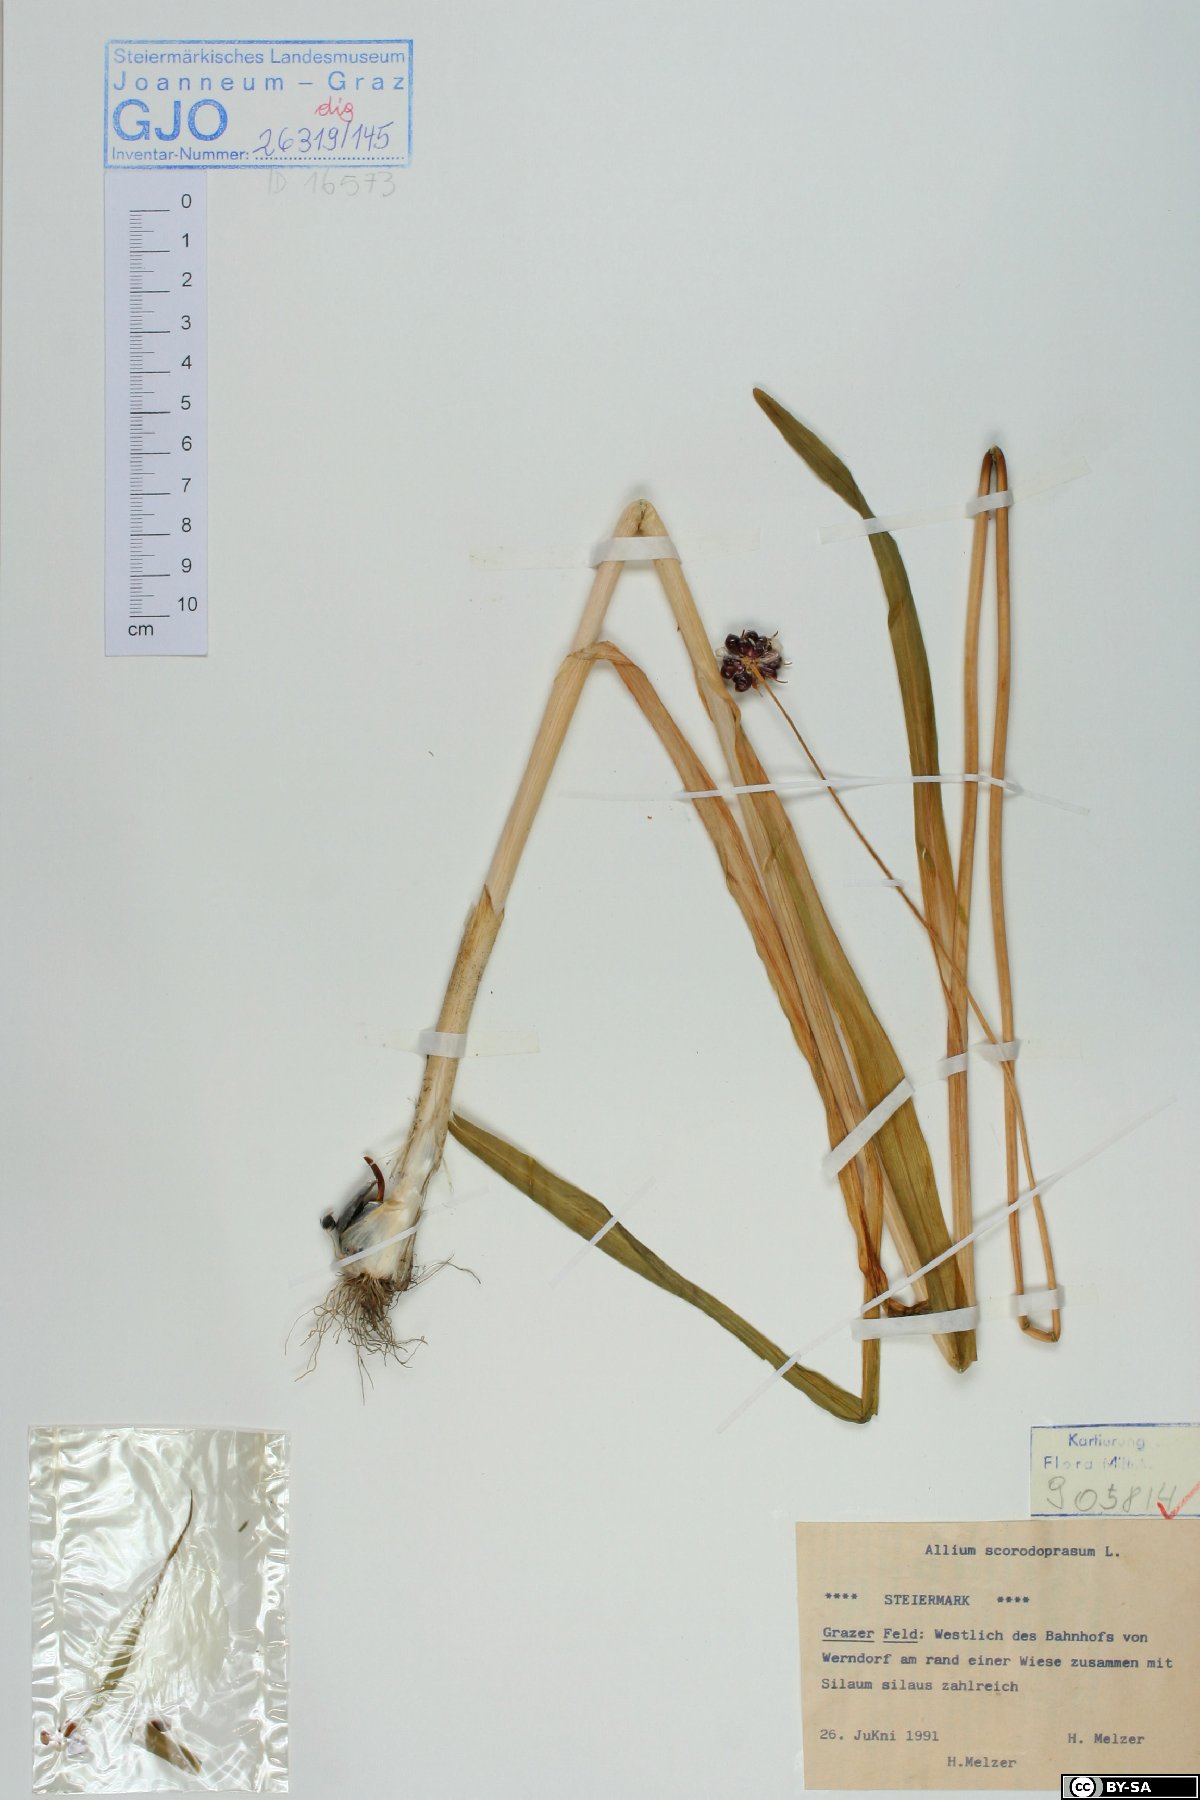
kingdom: Plantae
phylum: Tracheophyta
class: Liliopsida
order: Asparagales
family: Amaryllidaceae
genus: Allium
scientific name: Allium scorodoprasum
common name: Sand leek
